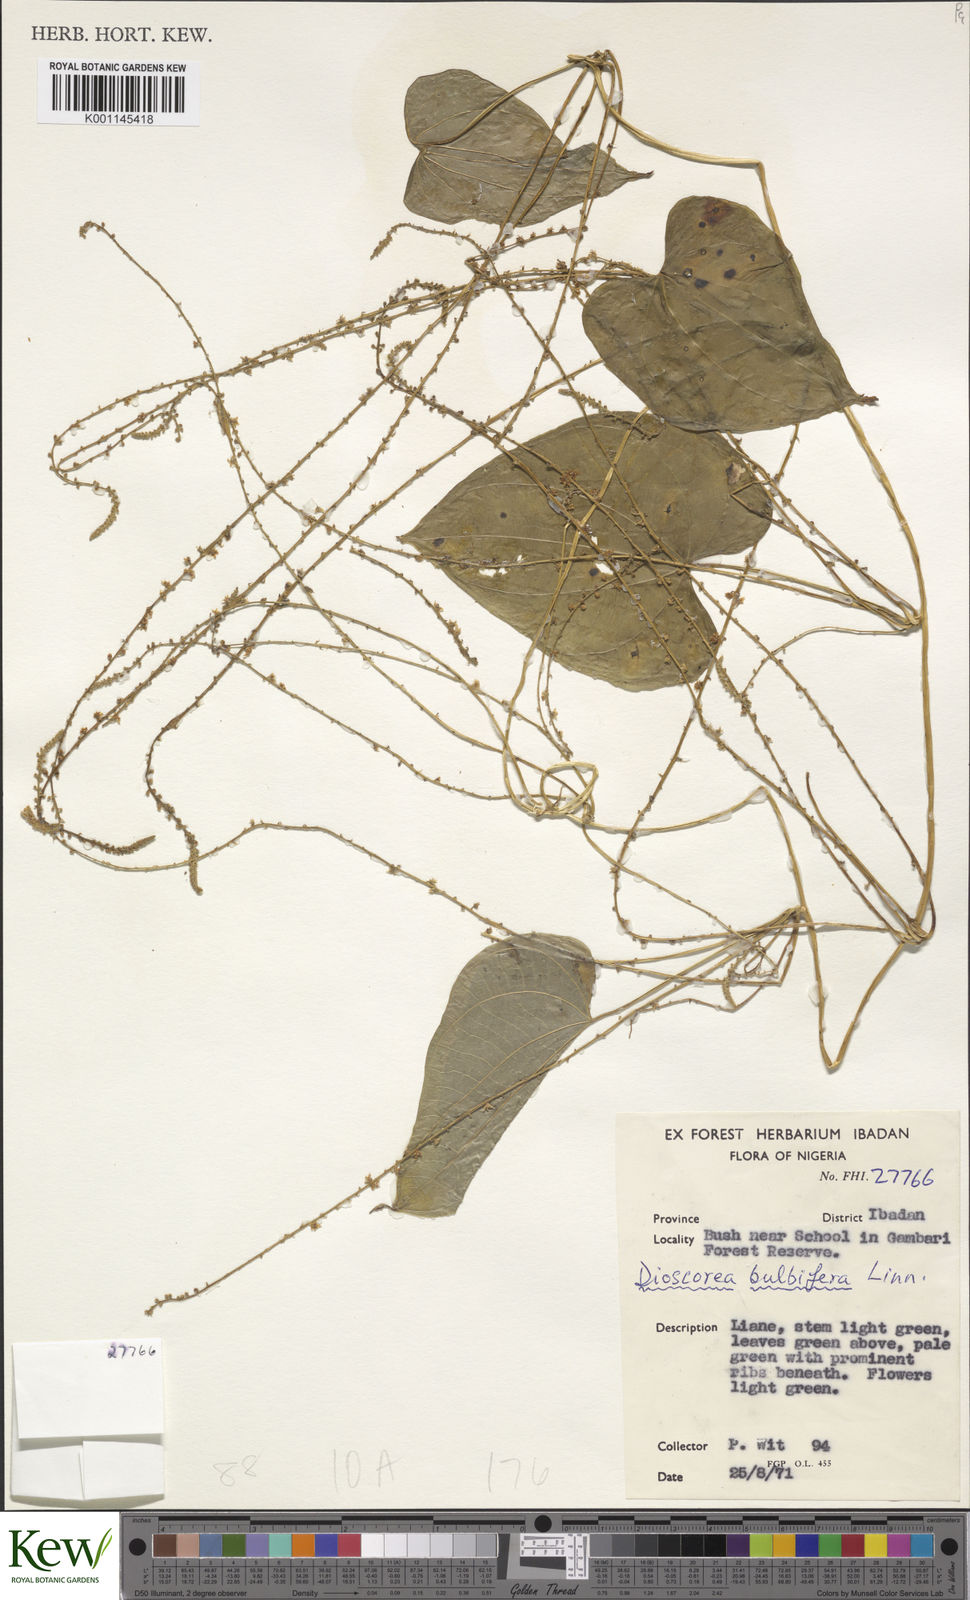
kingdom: Plantae
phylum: Tracheophyta
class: Liliopsida
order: Dioscoreales
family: Dioscoreaceae
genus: Dioscorea
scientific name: Dioscorea bulbifera
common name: Air yam
